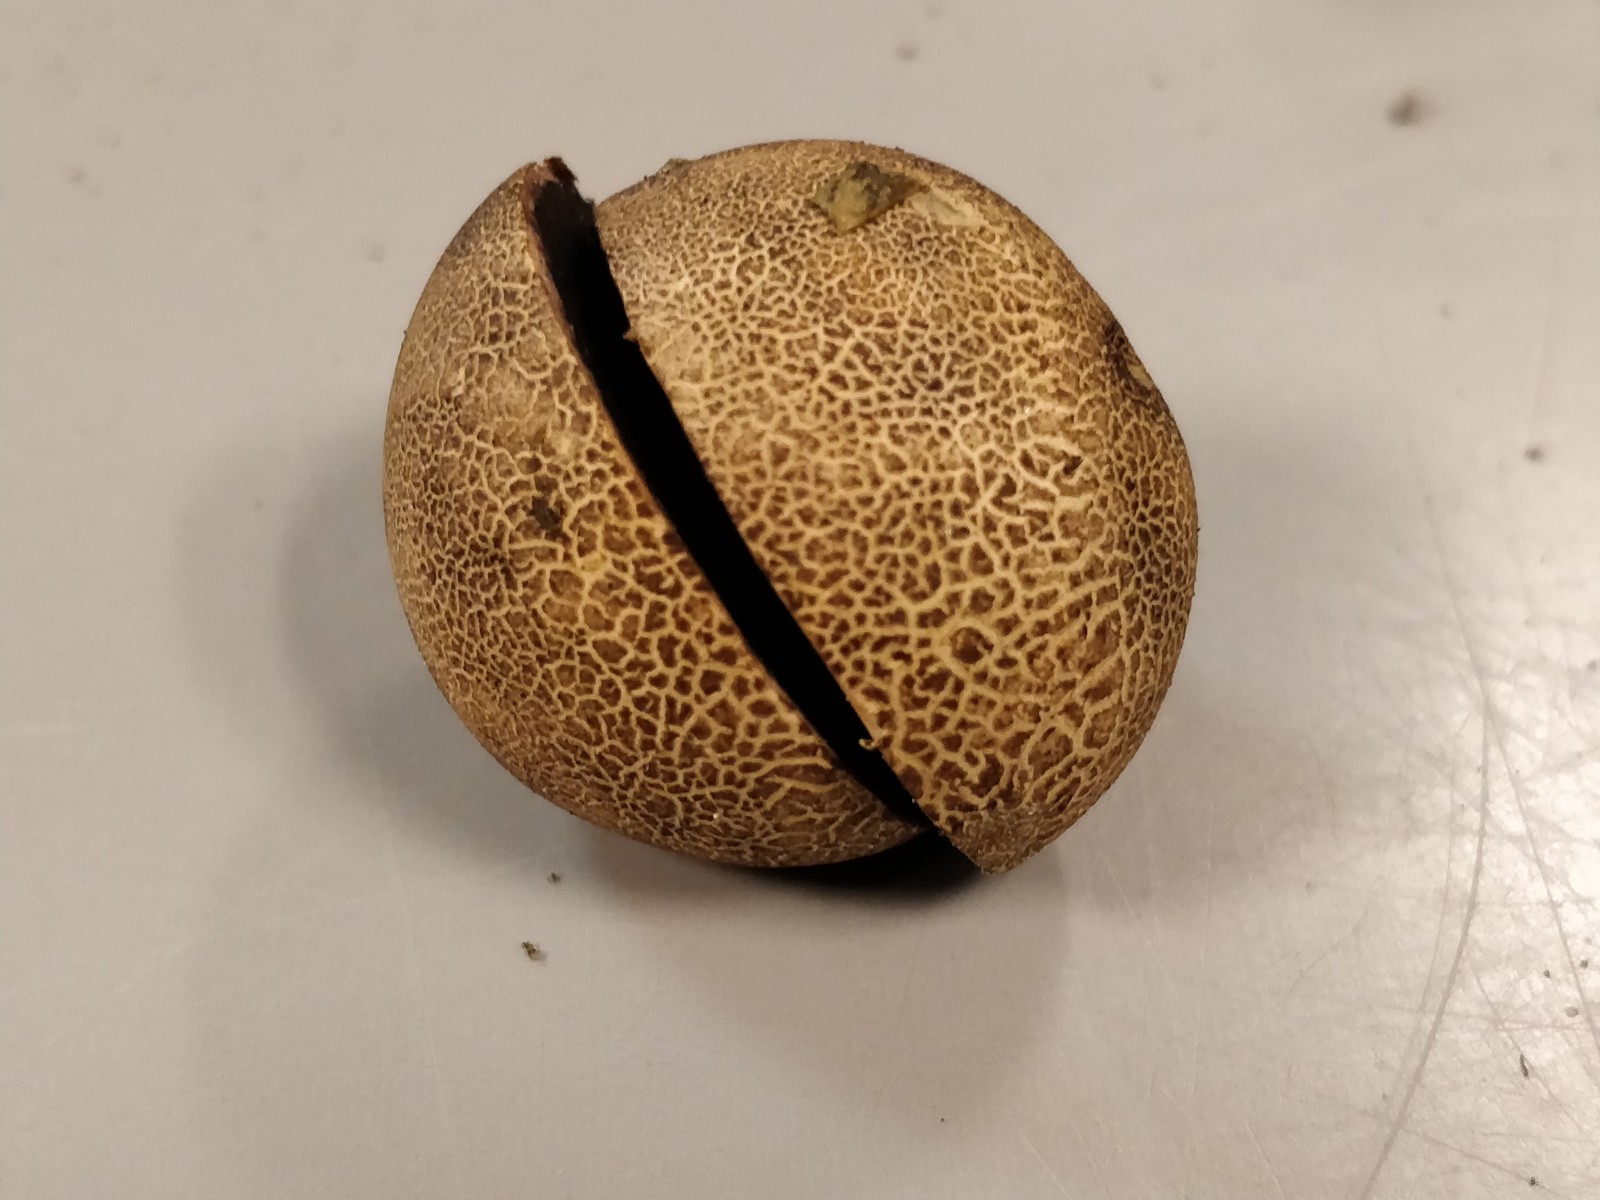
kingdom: Fungi
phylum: Basidiomycota
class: Agaricomycetes
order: Boletales
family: Sclerodermataceae
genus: Scleroderma
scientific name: Scleroderma
